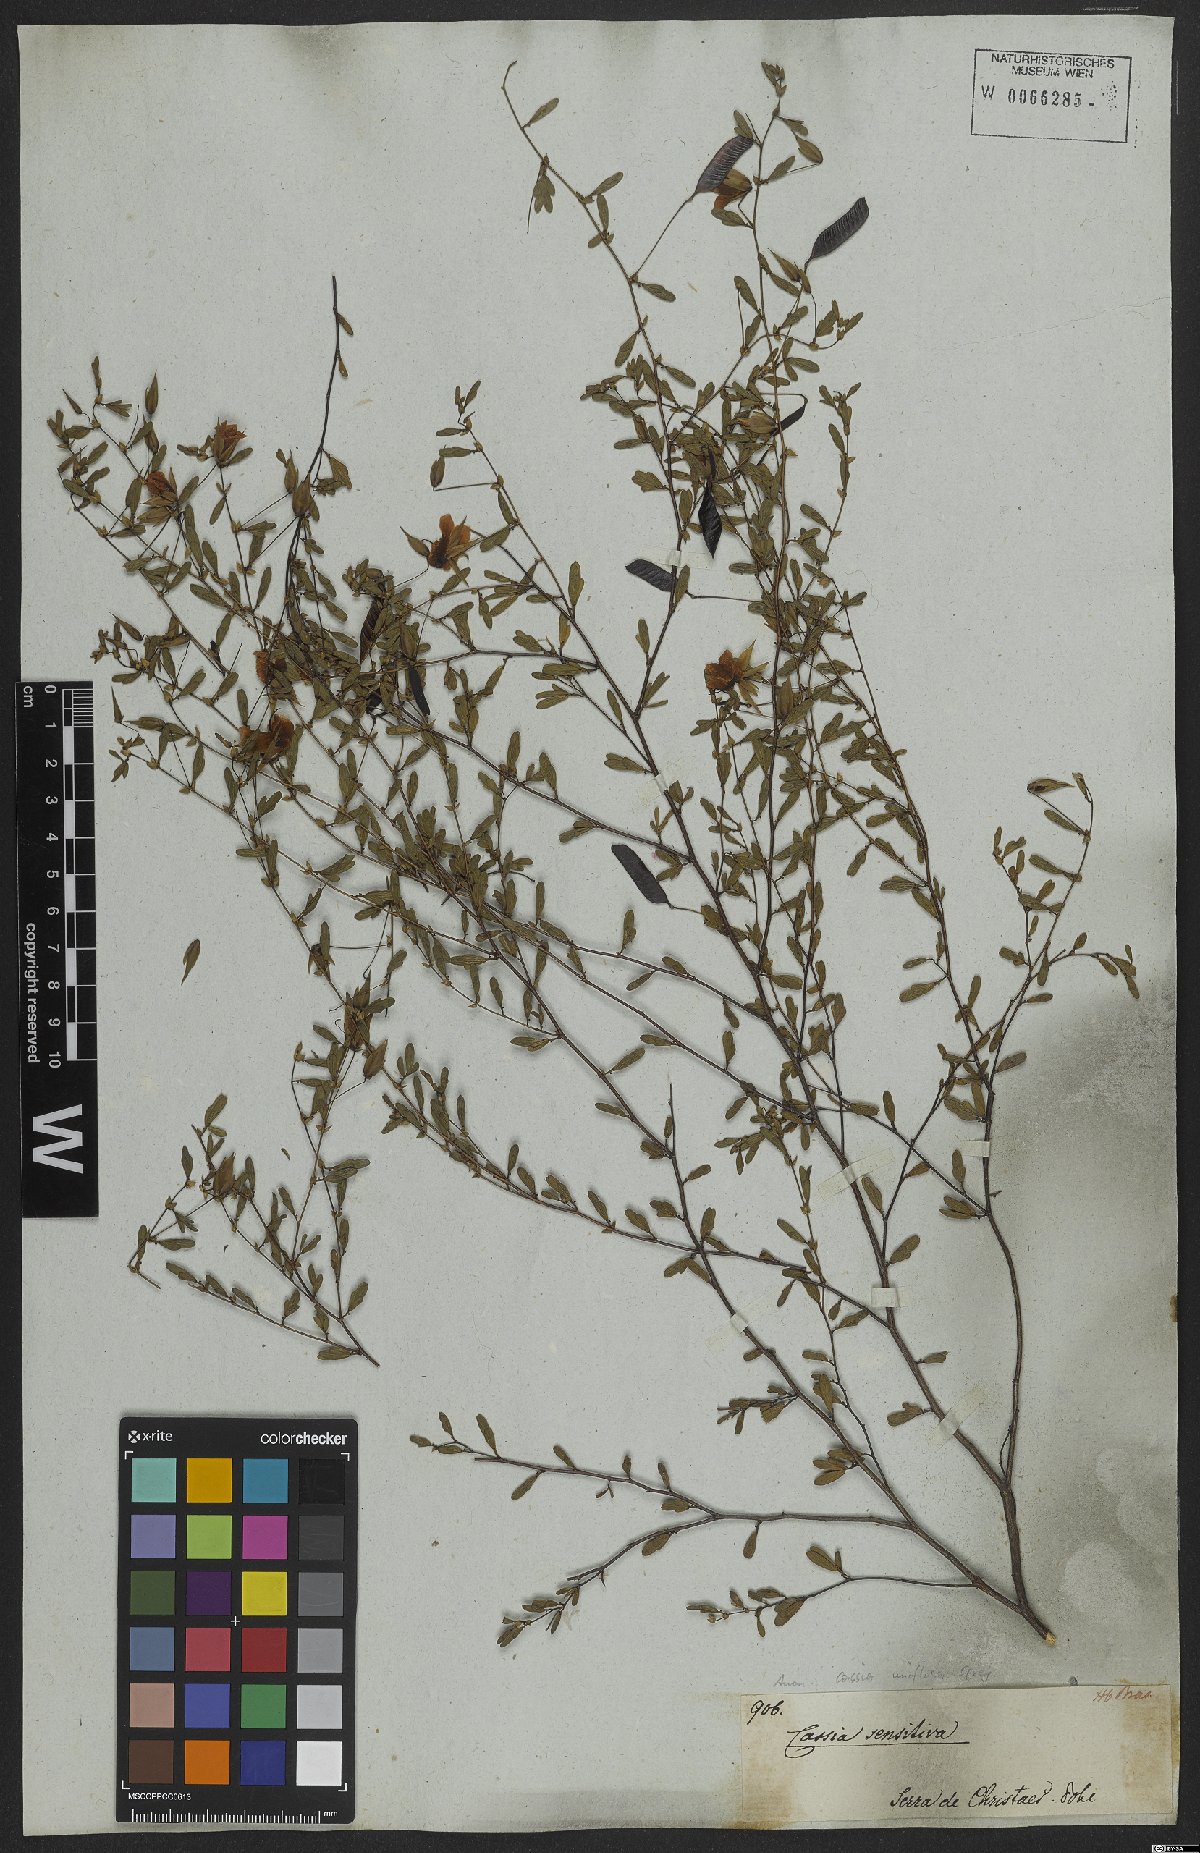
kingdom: Plantae
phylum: Tracheophyta
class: Magnoliopsida
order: Fabales
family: Fabaceae
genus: Senna
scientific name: Senna uniflora
